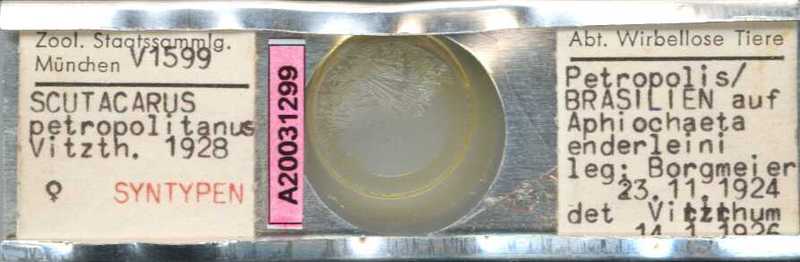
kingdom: Animalia
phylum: Arthropoda
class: Arachnida
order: Trombidiformes
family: Scutacaridae
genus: Scutacarus
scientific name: Scutacarus
